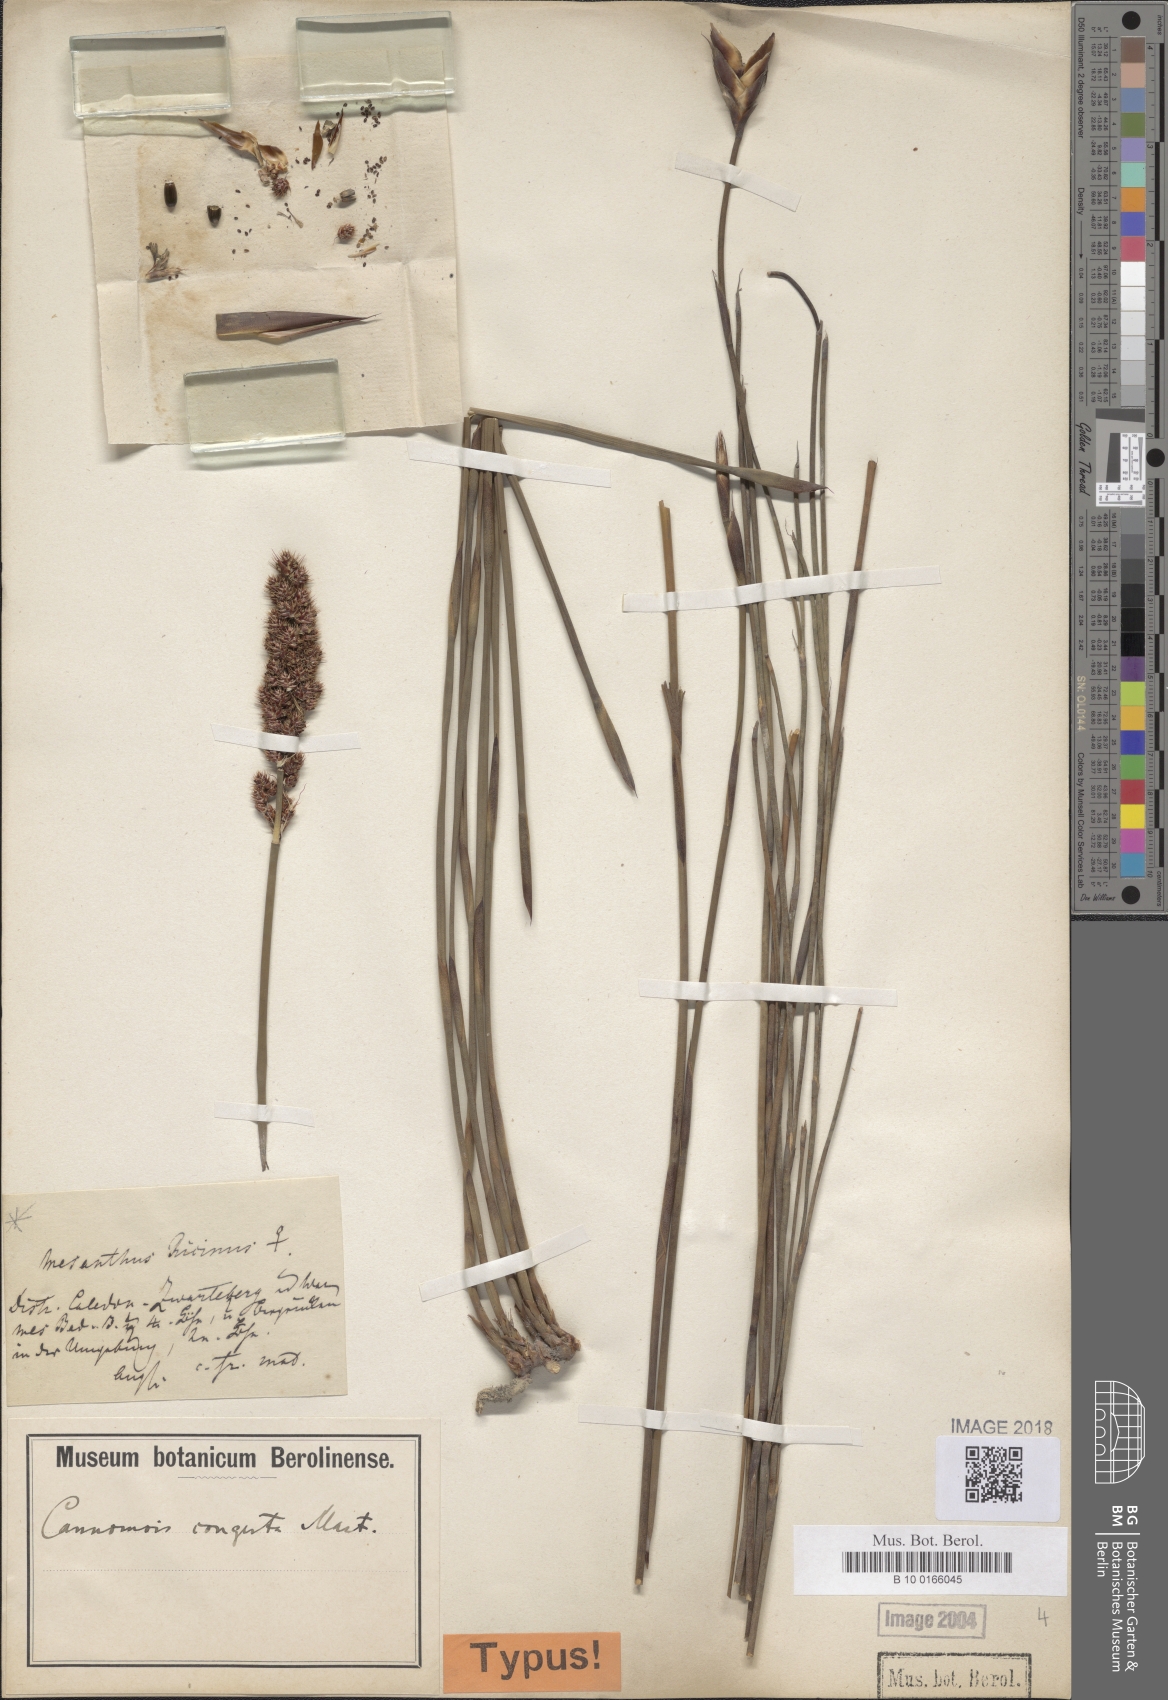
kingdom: Plantae
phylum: Tracheophyta
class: Liliopsida
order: Poales
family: Restionaceae
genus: Cannomois
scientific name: Cannomois congesta
